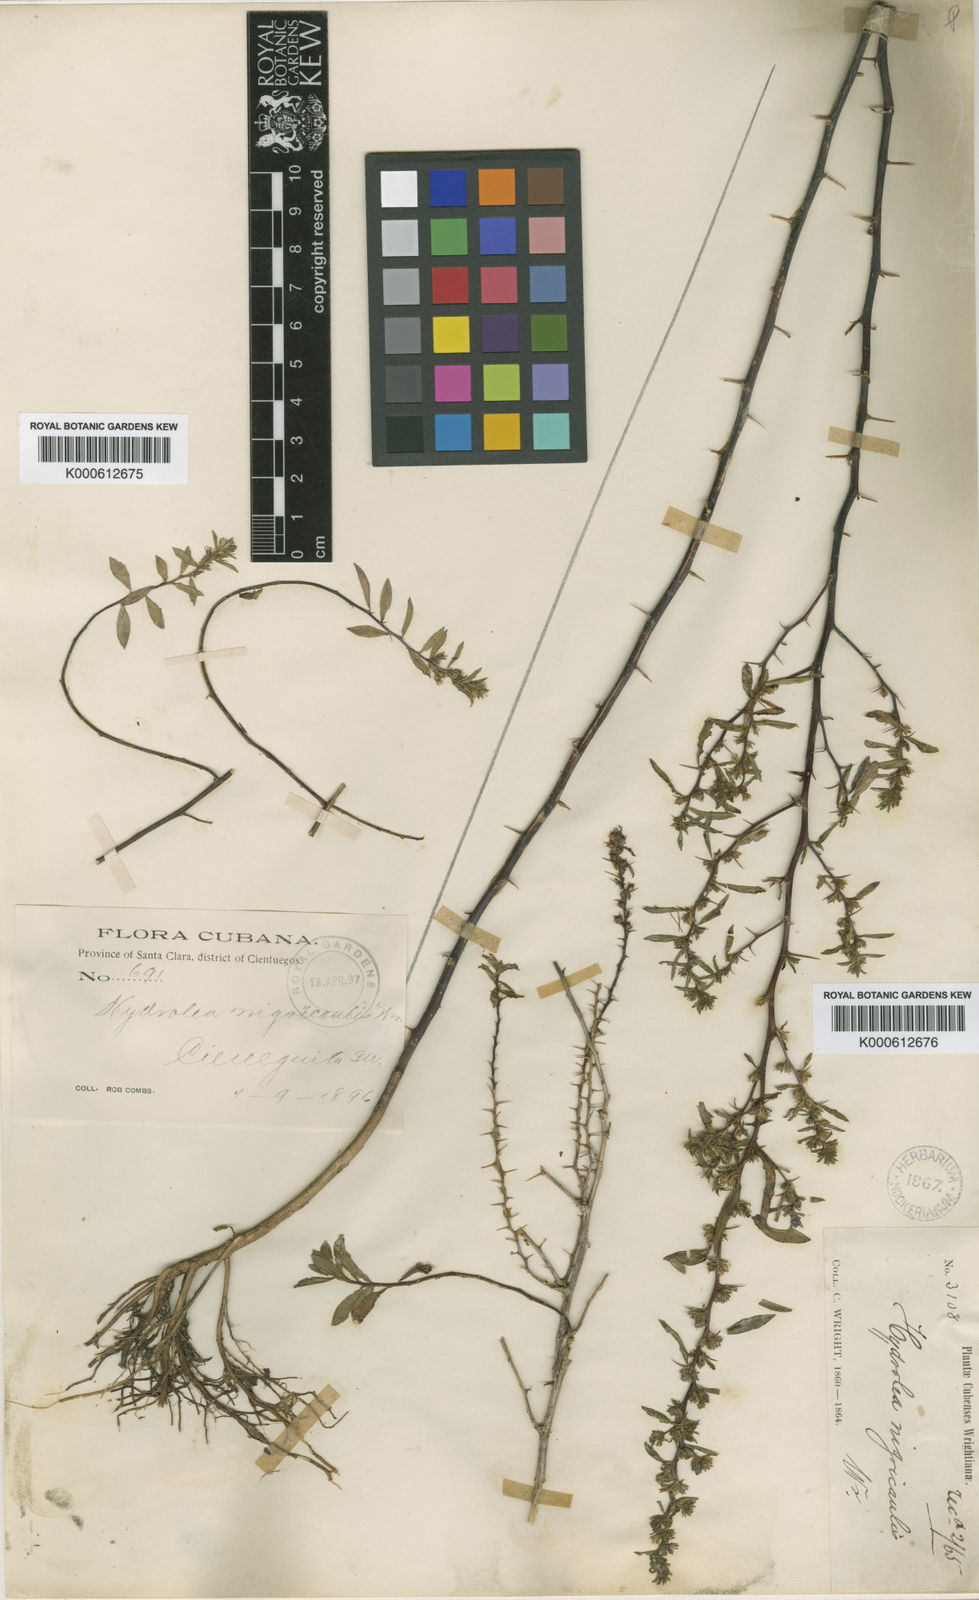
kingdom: Plantae
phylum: Tracheophyta
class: Magnoliopsida
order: Boraginales
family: Namaceae
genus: Nama
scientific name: Nama cubana
